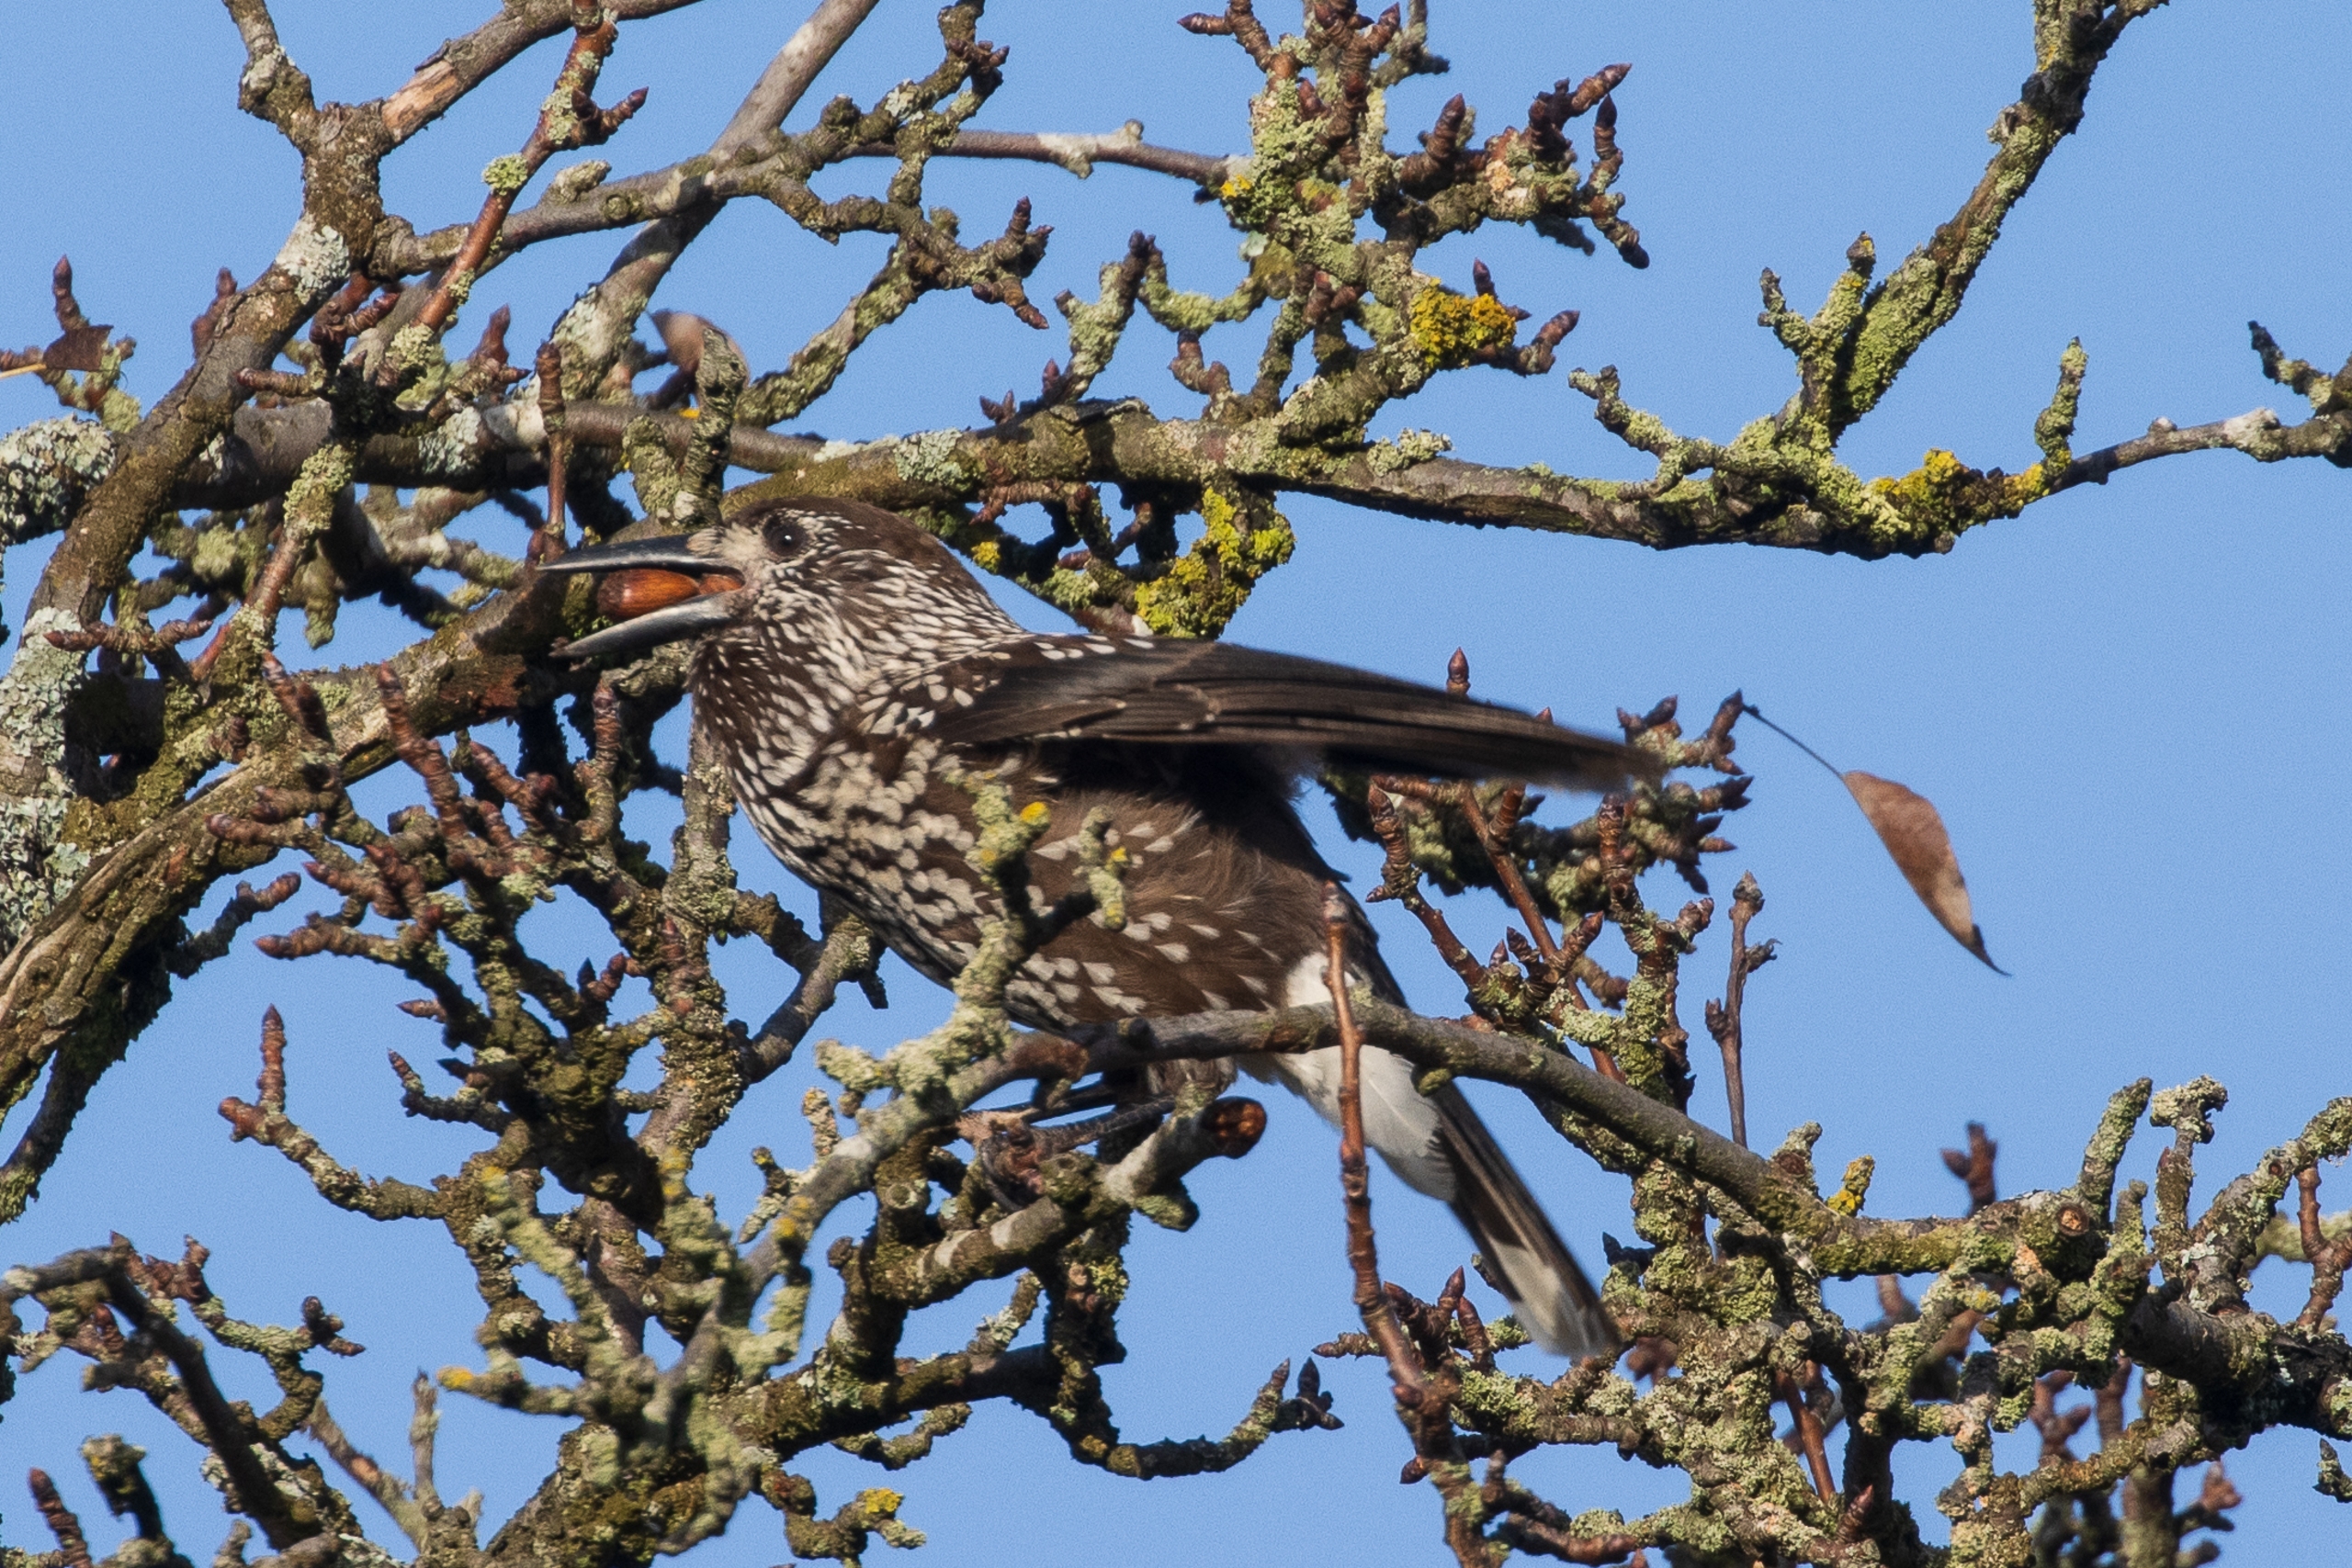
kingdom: Animalia
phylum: Chordata
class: Aves
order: Passeriformes
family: Corvidae
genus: Nucifraga
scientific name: Nucifraga caryocatactes
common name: Tyknæbbet nøddekrige
